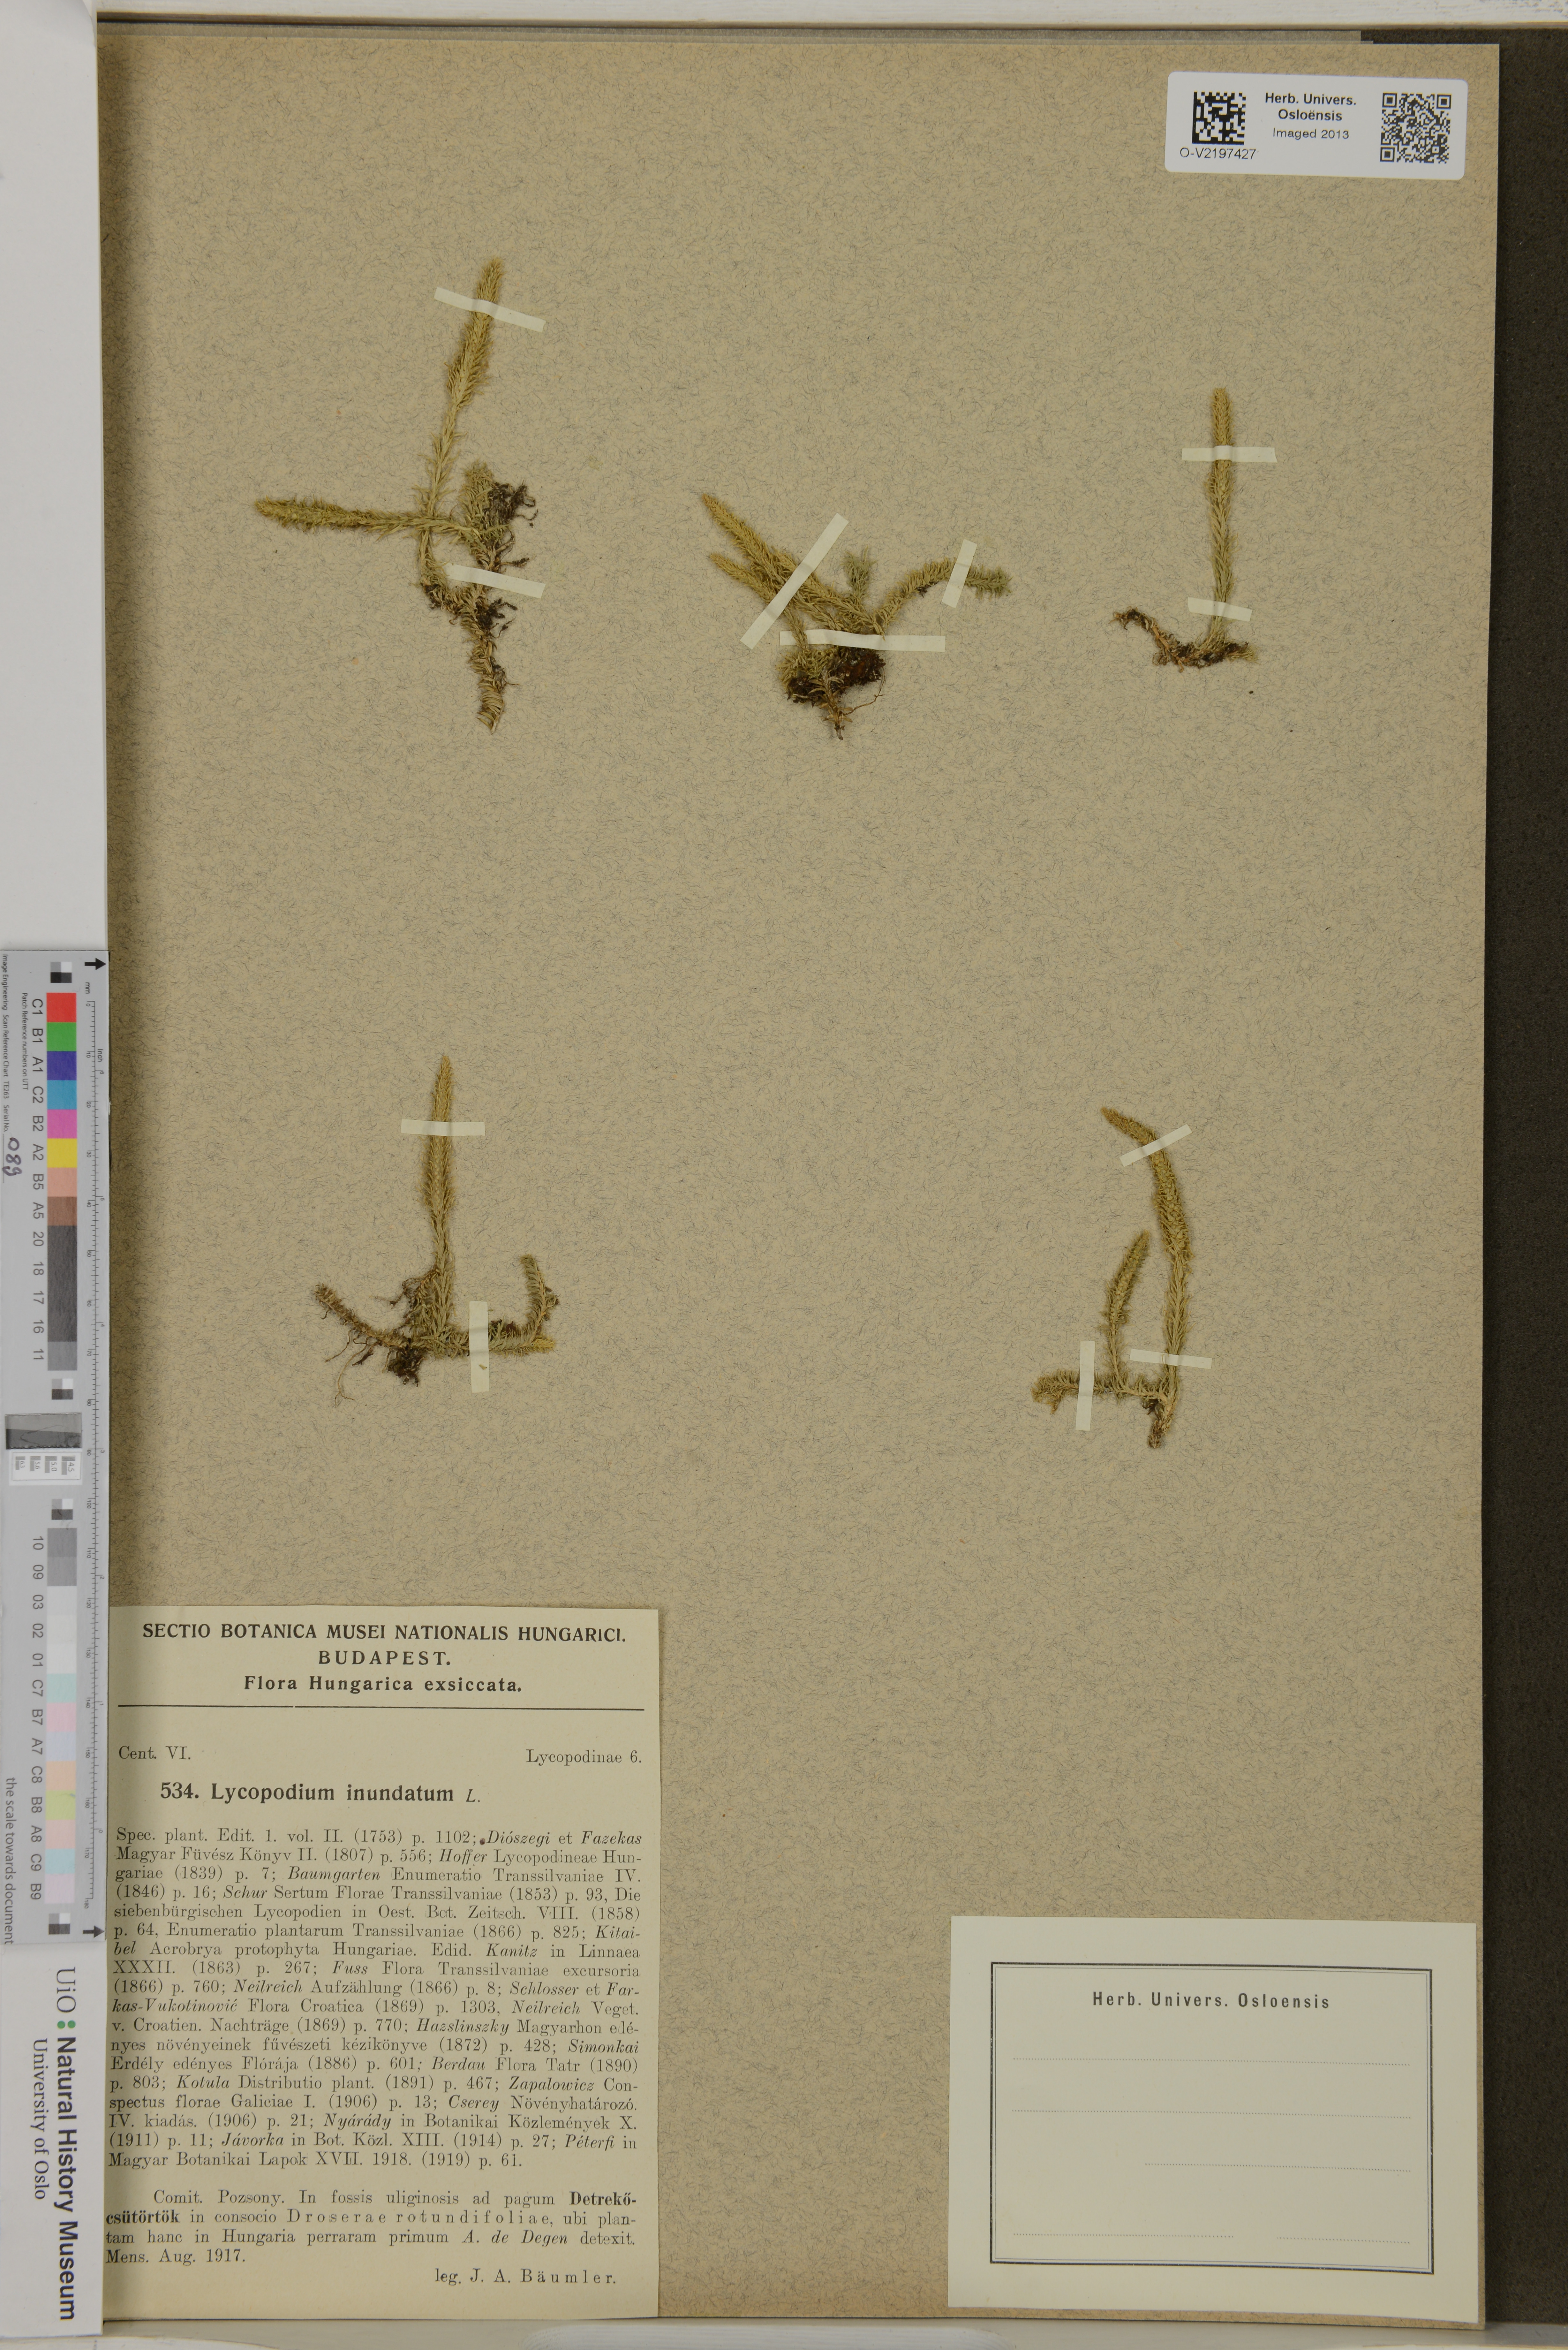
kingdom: Plantae
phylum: Tracheophyta
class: Lycopodiopsida
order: Lycopodiales
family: Lycopodiaceae
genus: Lycopodiella
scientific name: Lycopodiella inundata
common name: Marsh clubmoss
